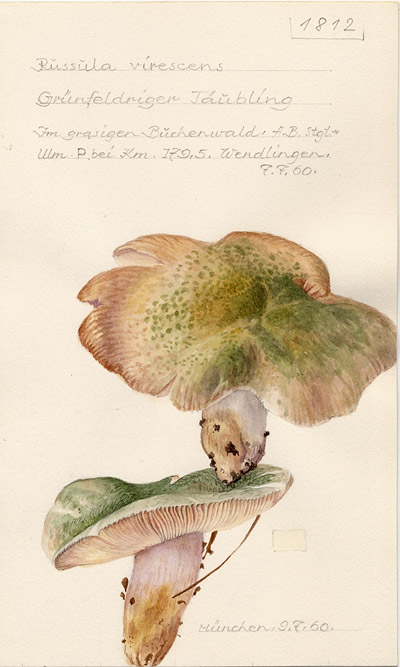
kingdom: Fungi
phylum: Basidiomycota
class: Agaricomycetes
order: Russulales
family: Russulaceae
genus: Russula
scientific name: Russula virescens
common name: Greencracked brittlegill
